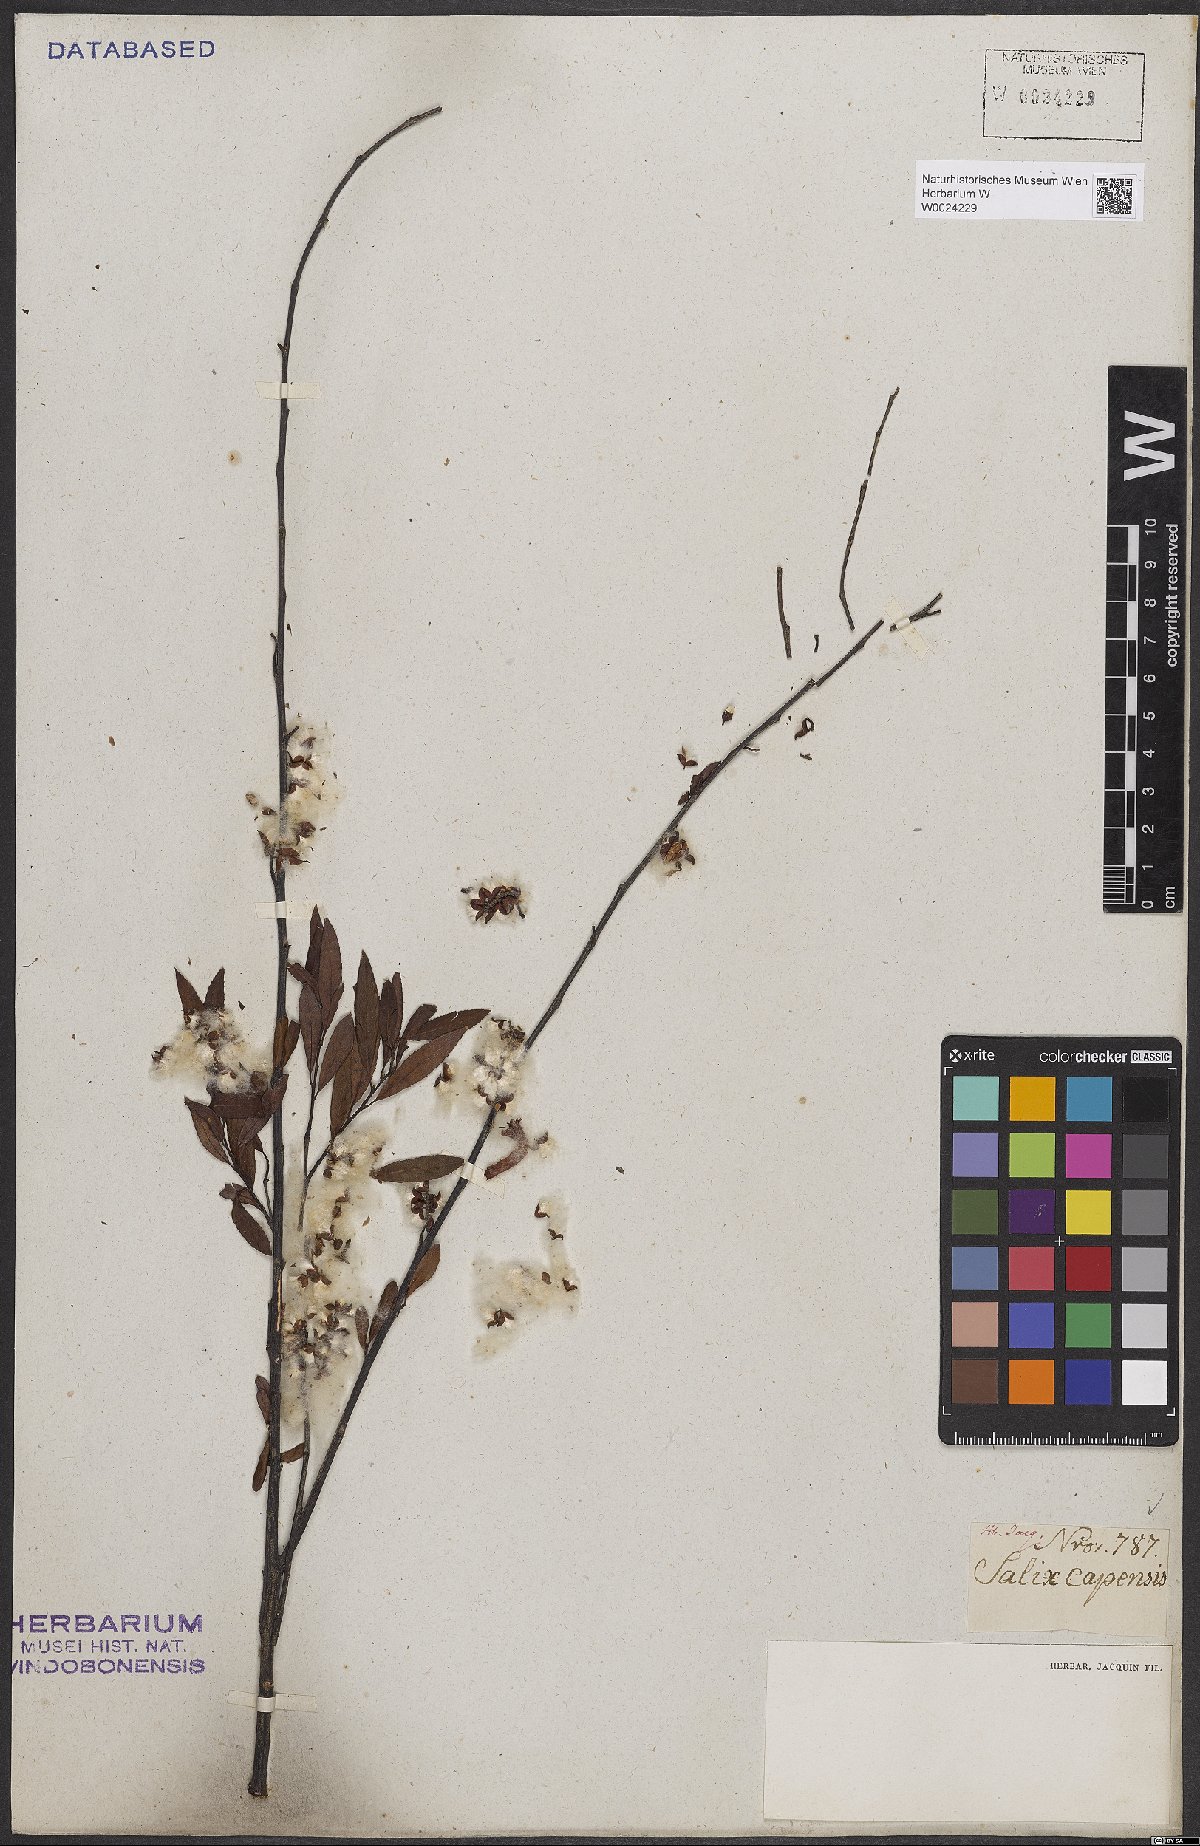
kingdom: Plantae
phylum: Tracheophyta
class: Magnoliopsida
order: Malpighiales
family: Salicaceae
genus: Salix
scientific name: Salix mucronata
